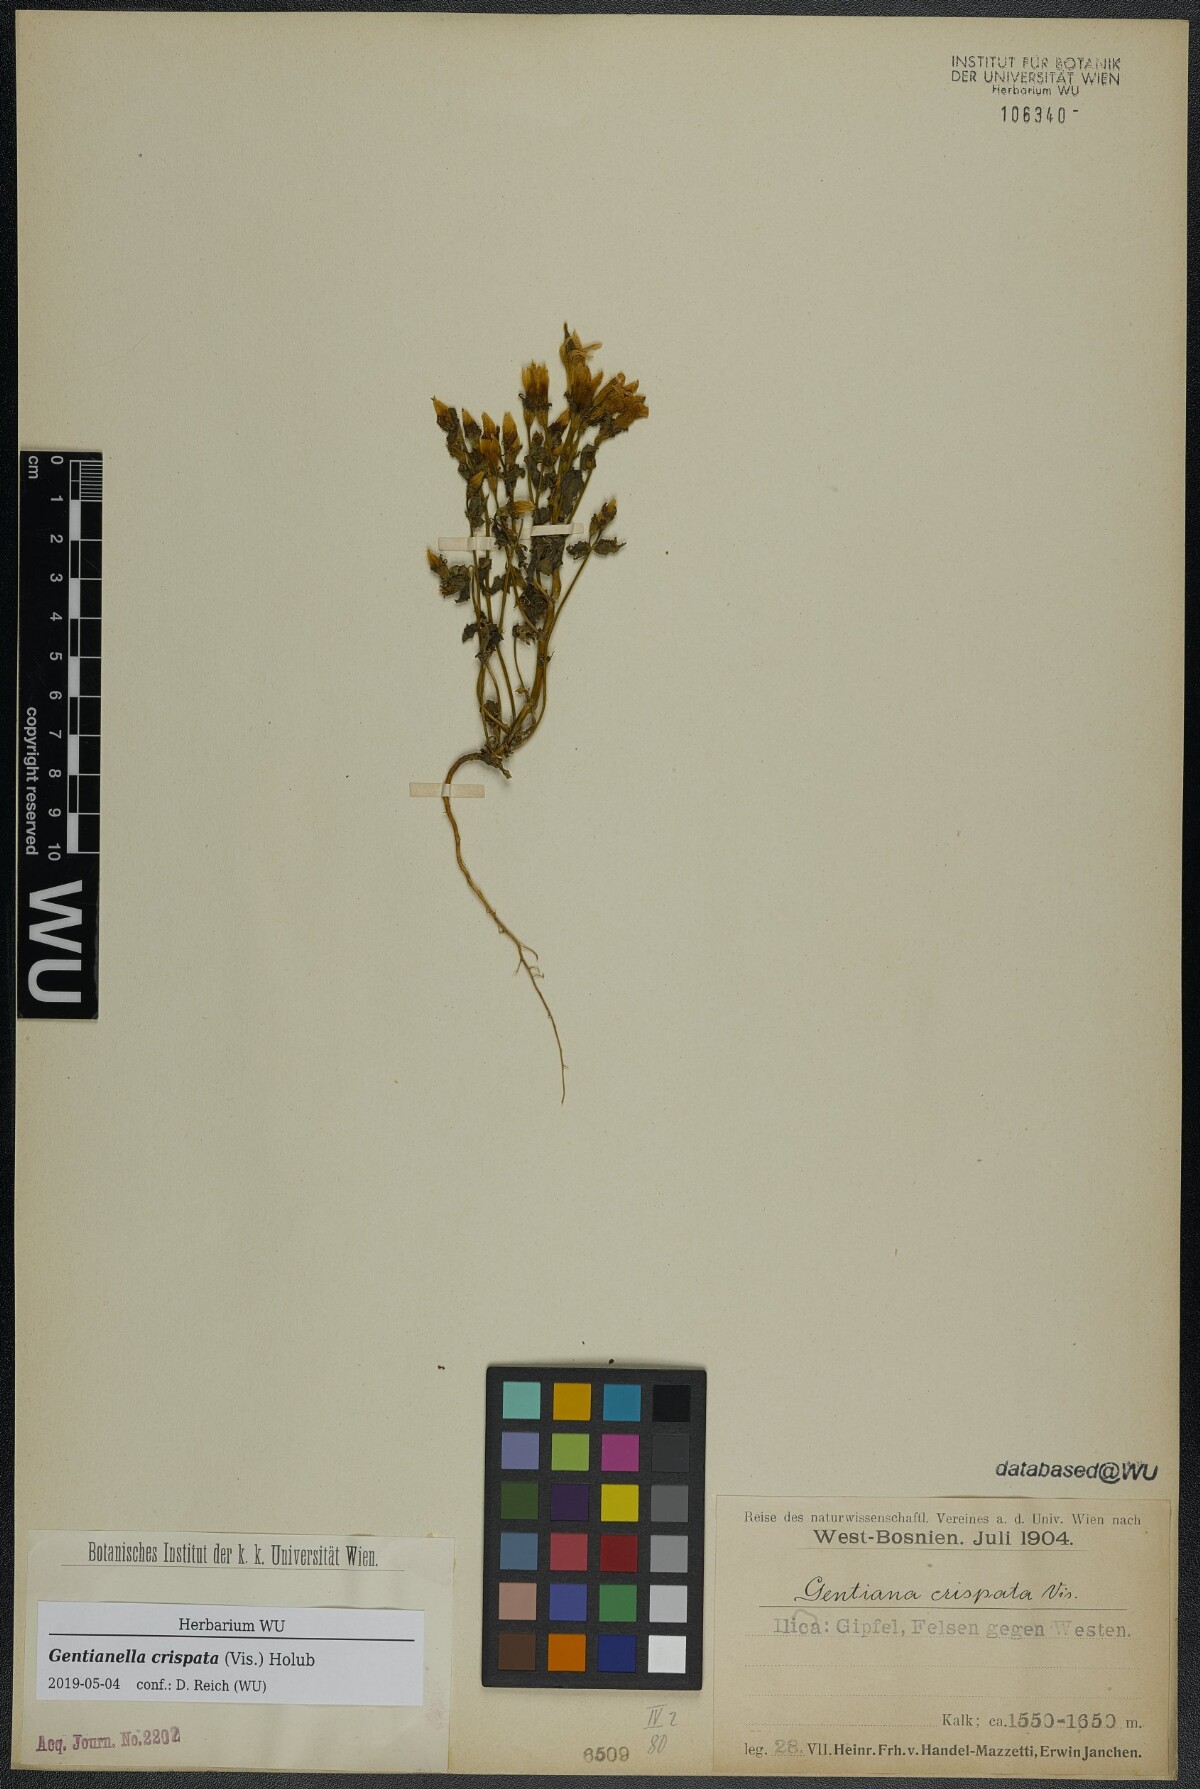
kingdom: Plantae
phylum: Tracheophyta
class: Magnoliopsida
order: Gentianales
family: Gentianaceae
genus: Gentianella
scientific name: Gentianella crispata
